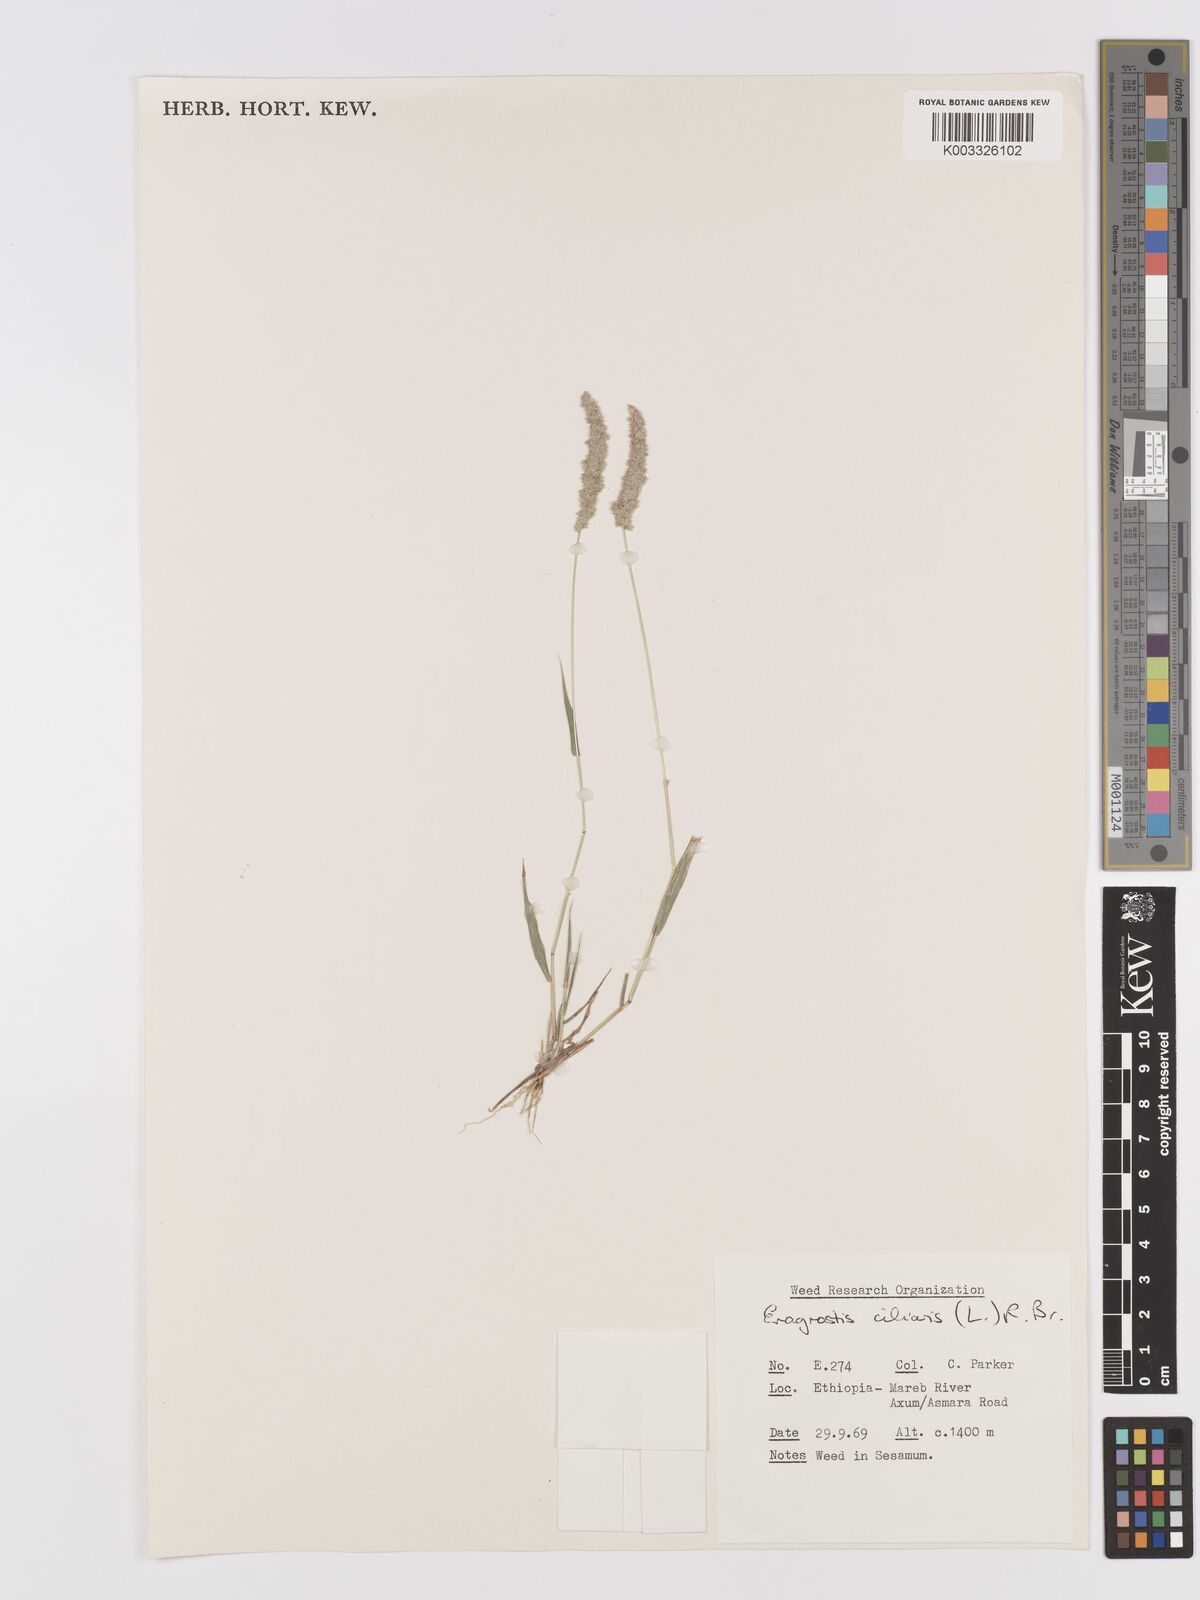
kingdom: Plantae
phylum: Tracheophyta
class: Liliopsida
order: Poales
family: Poaceae
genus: Eragrostis
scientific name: Eragrostis ciliaris
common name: Gophertail lovegrass
